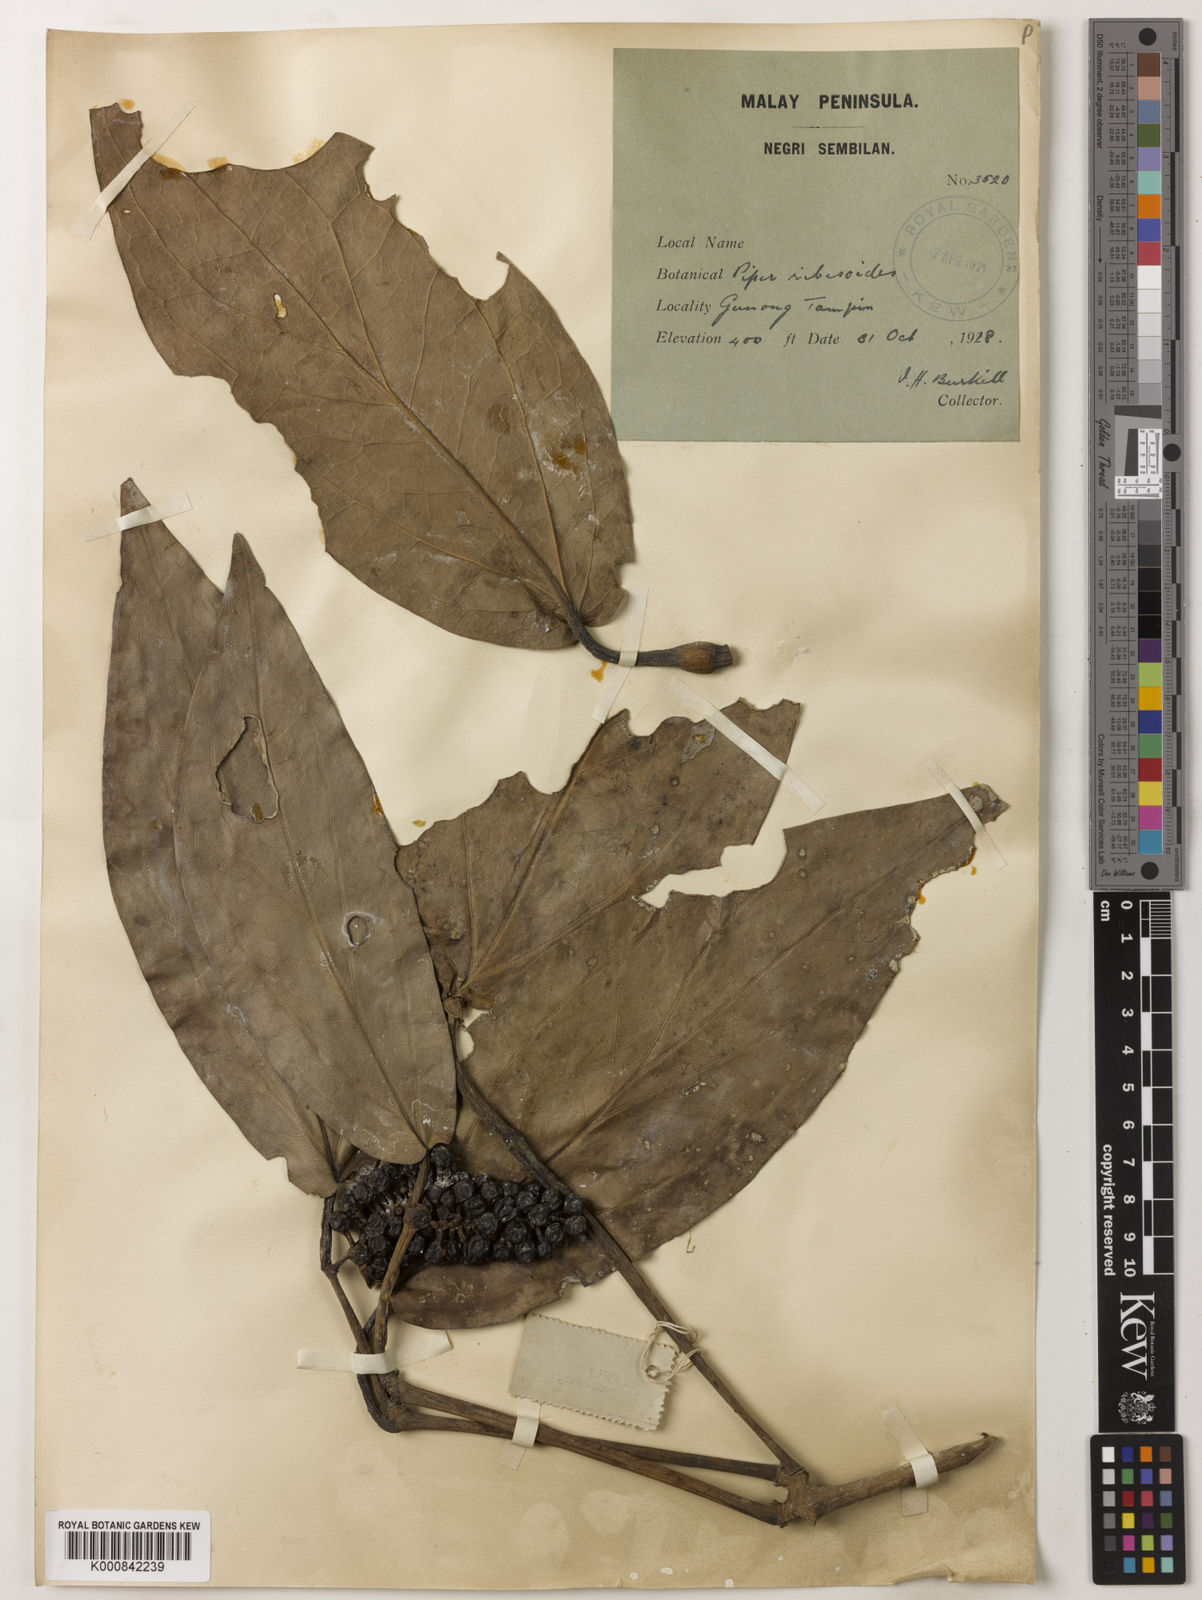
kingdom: Plantae
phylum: Tracheophyta
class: Magnoliopsida
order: Piperales
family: Piperaceae
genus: Piper
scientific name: Piper ribesioides
